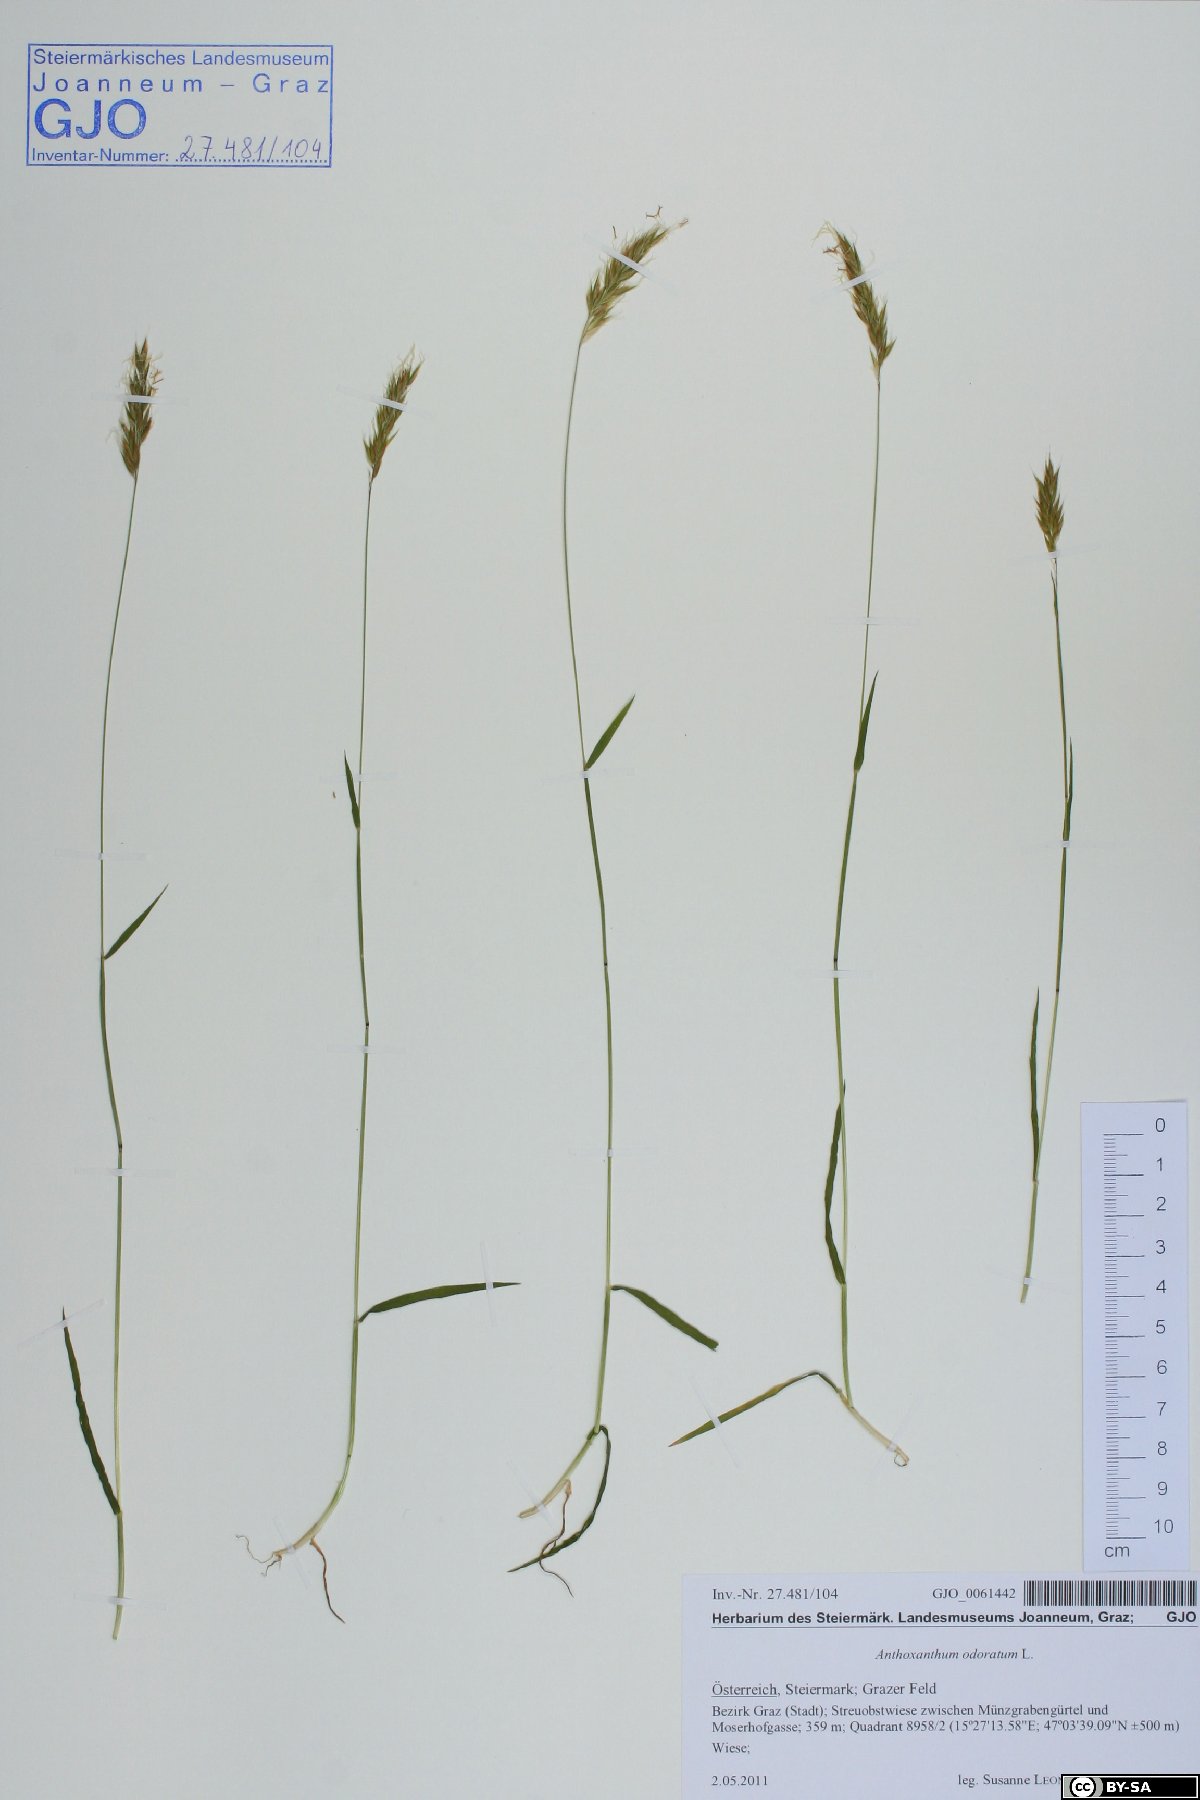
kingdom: Plantae
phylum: Tracheophyta
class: Liliopsida
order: Poales
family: Poaceae
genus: Anthoxanthum
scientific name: Anthoxanthum odoratum
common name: Sweet vernalgrass
